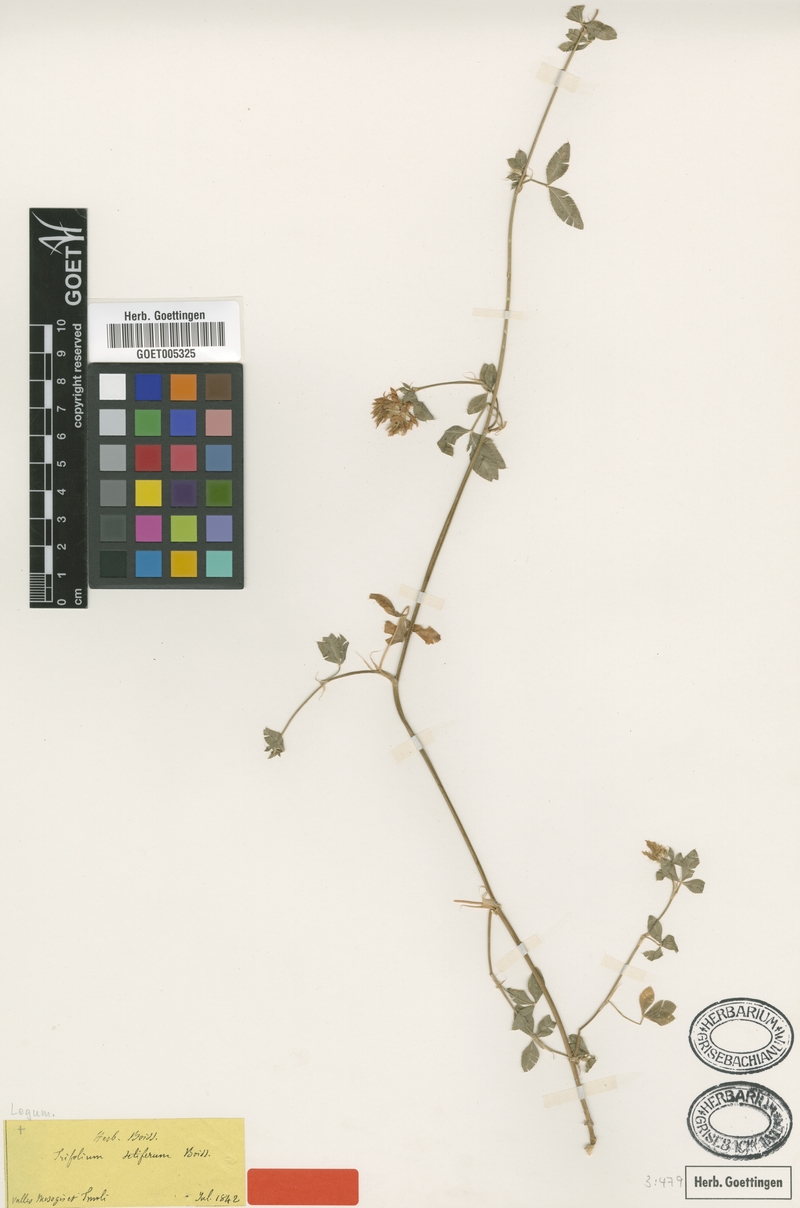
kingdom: Plantae
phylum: Tracheophyta
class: Magnoliopsida
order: Fabales
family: Fabaceae
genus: Trifolium
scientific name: Trifolium setiferum
